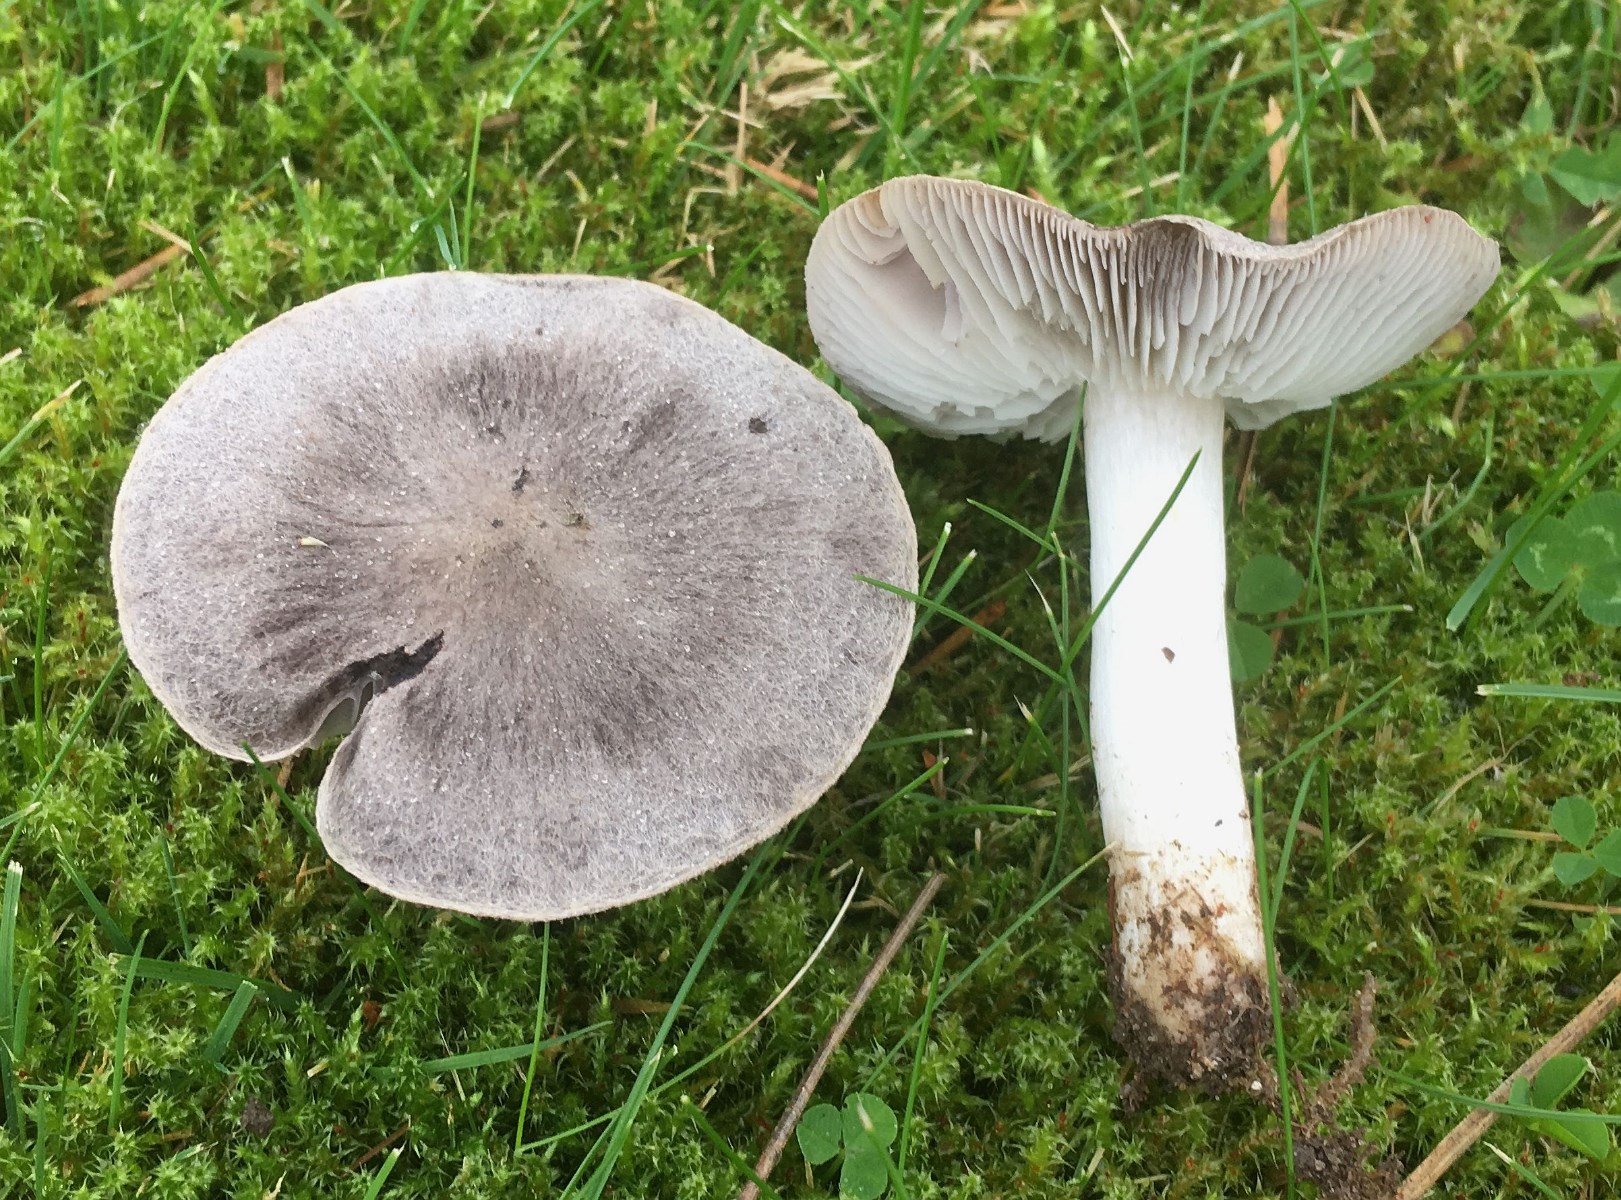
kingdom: Fungi
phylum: Basidiomycota
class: Agaricomycetes
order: Agaricales
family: Tricholomataceae
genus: Tricholoma
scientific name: Tricholoma terreum
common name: jordfarvet ridderhat
